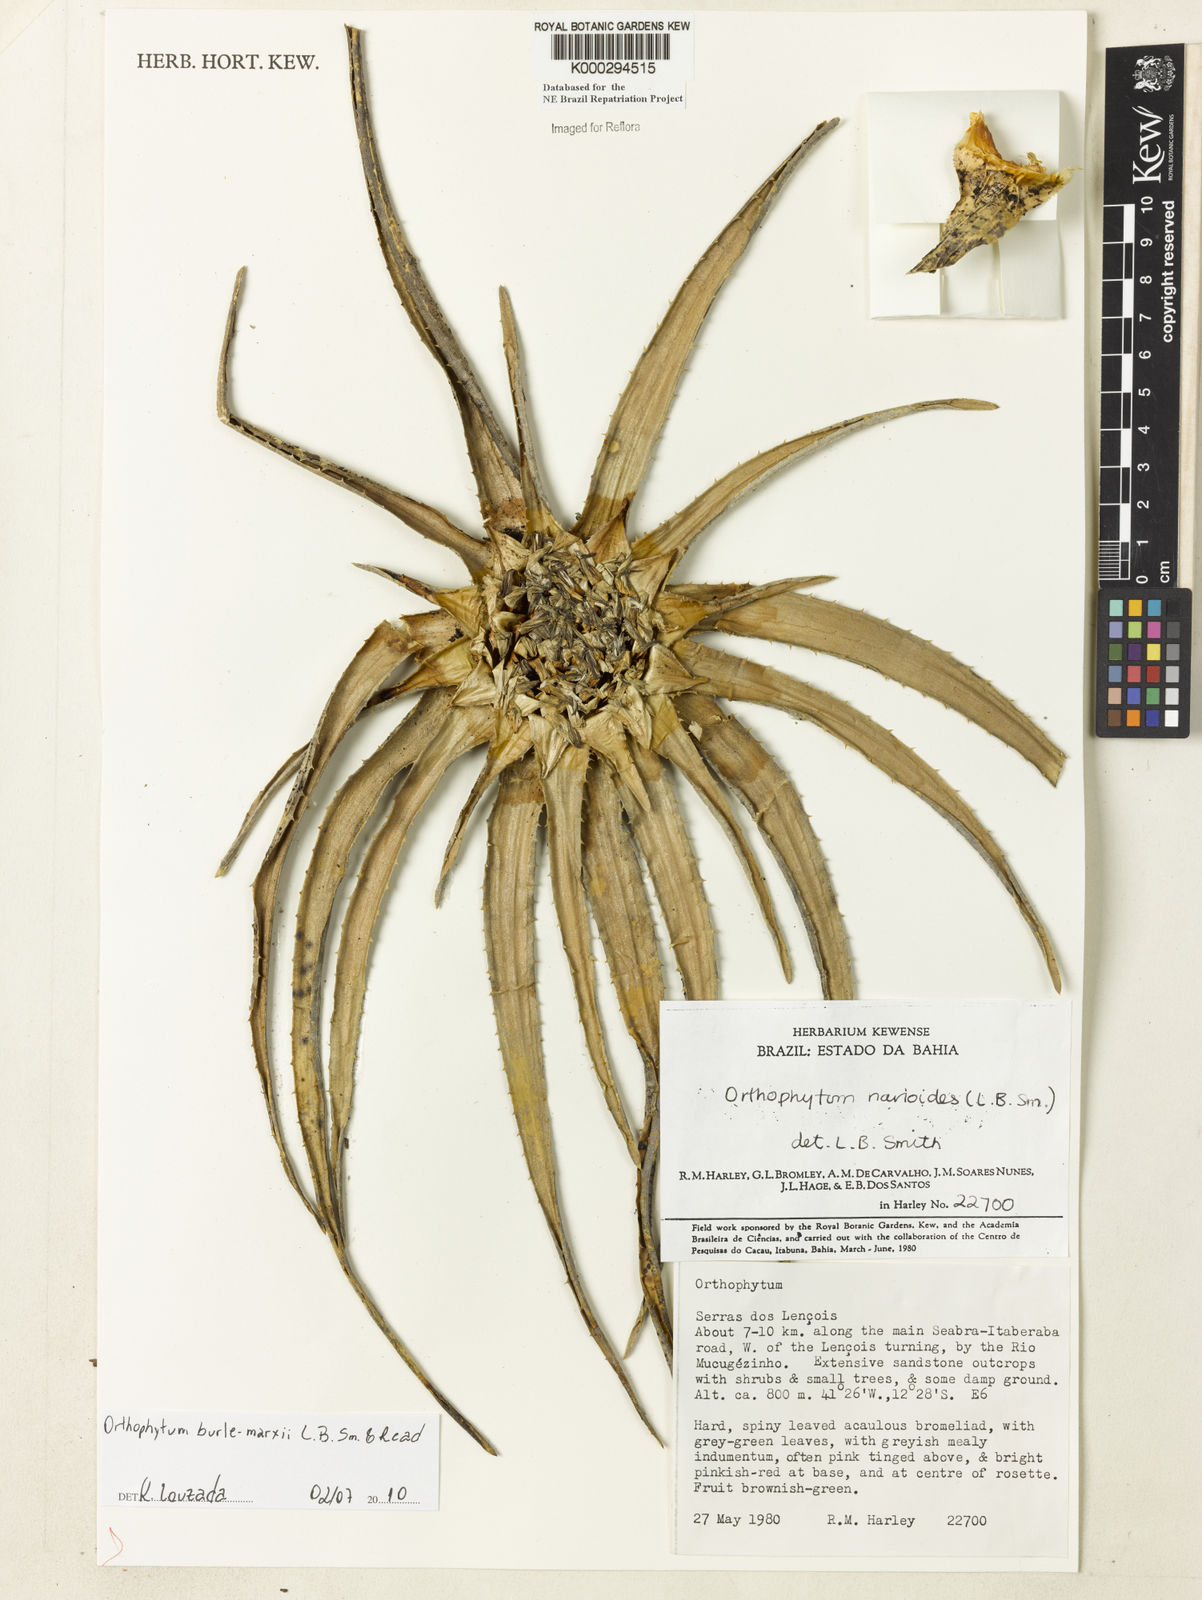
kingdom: Plantae
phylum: Tracheophyta
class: Liliopsida
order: Poales
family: Bromeliaceae
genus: Sincoraea
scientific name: Sincoraea navioides
